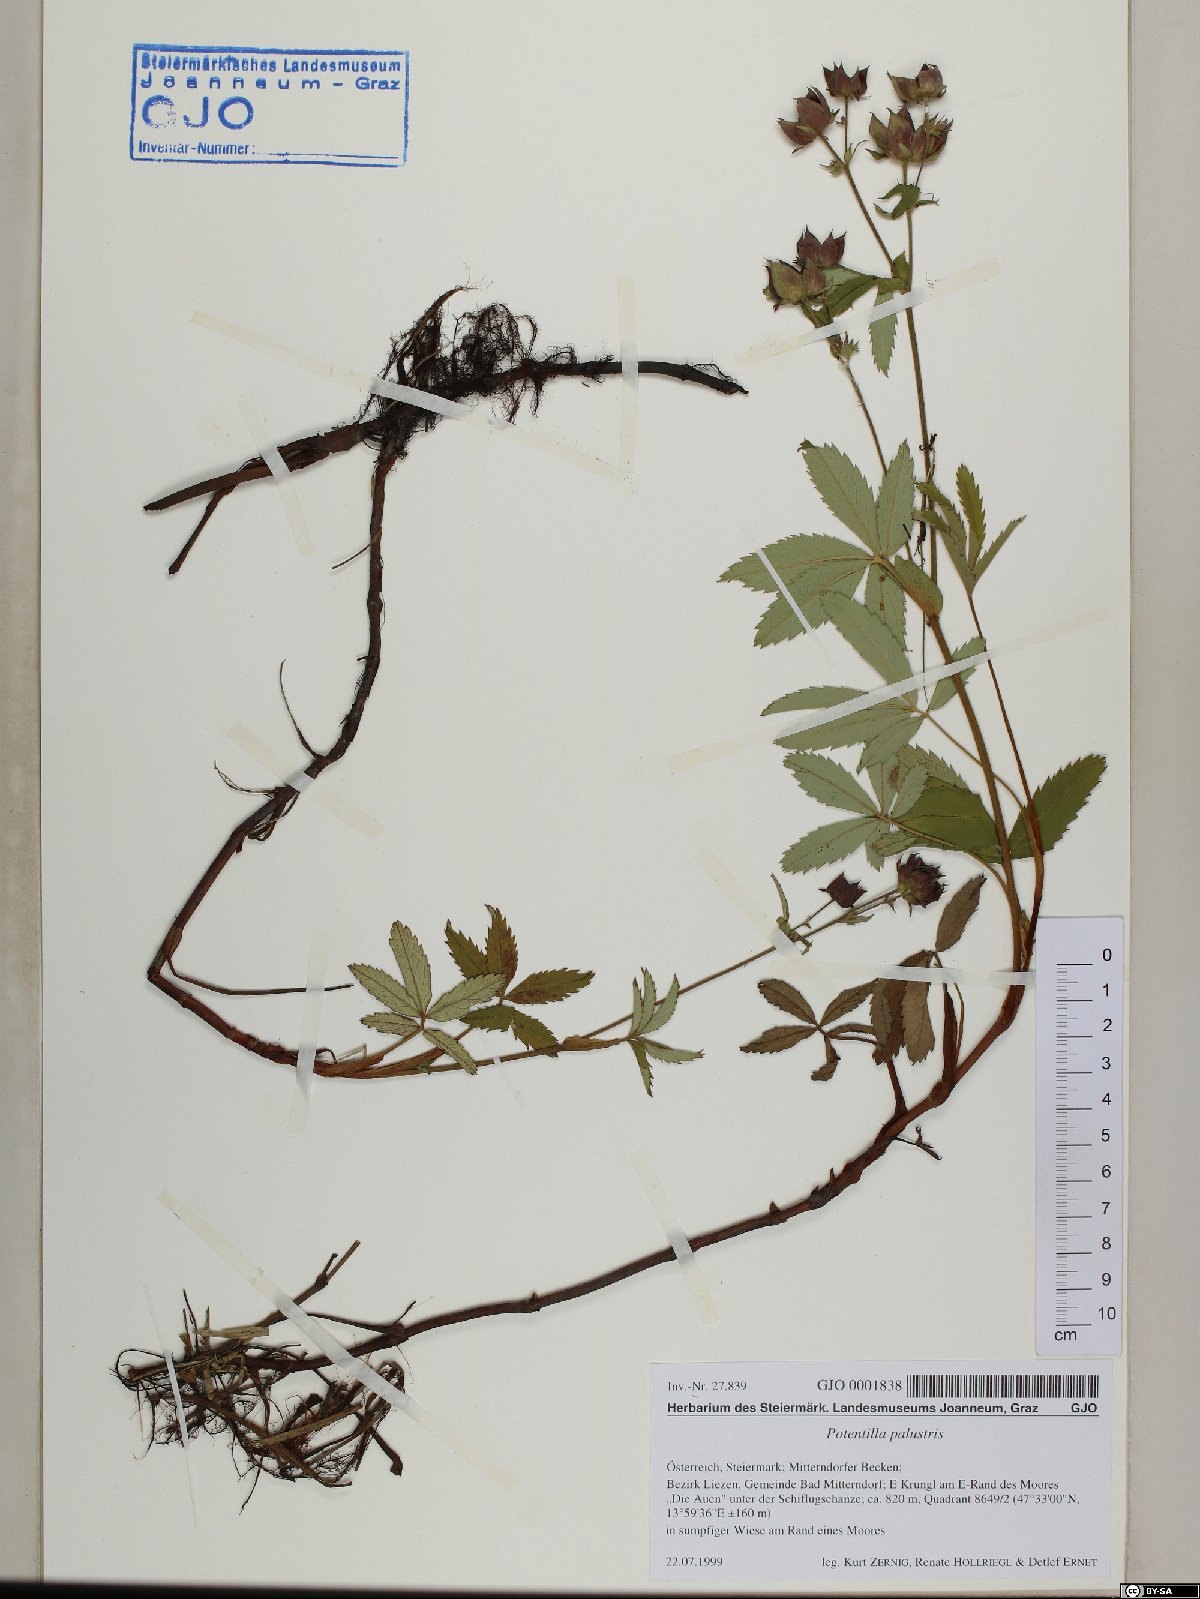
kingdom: Plantae
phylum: Tracheophyta
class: Magnoliopsida
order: Rosales
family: Rosaceae
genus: Comarum
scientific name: Comarum palustre
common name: Marsh cinquefoil
